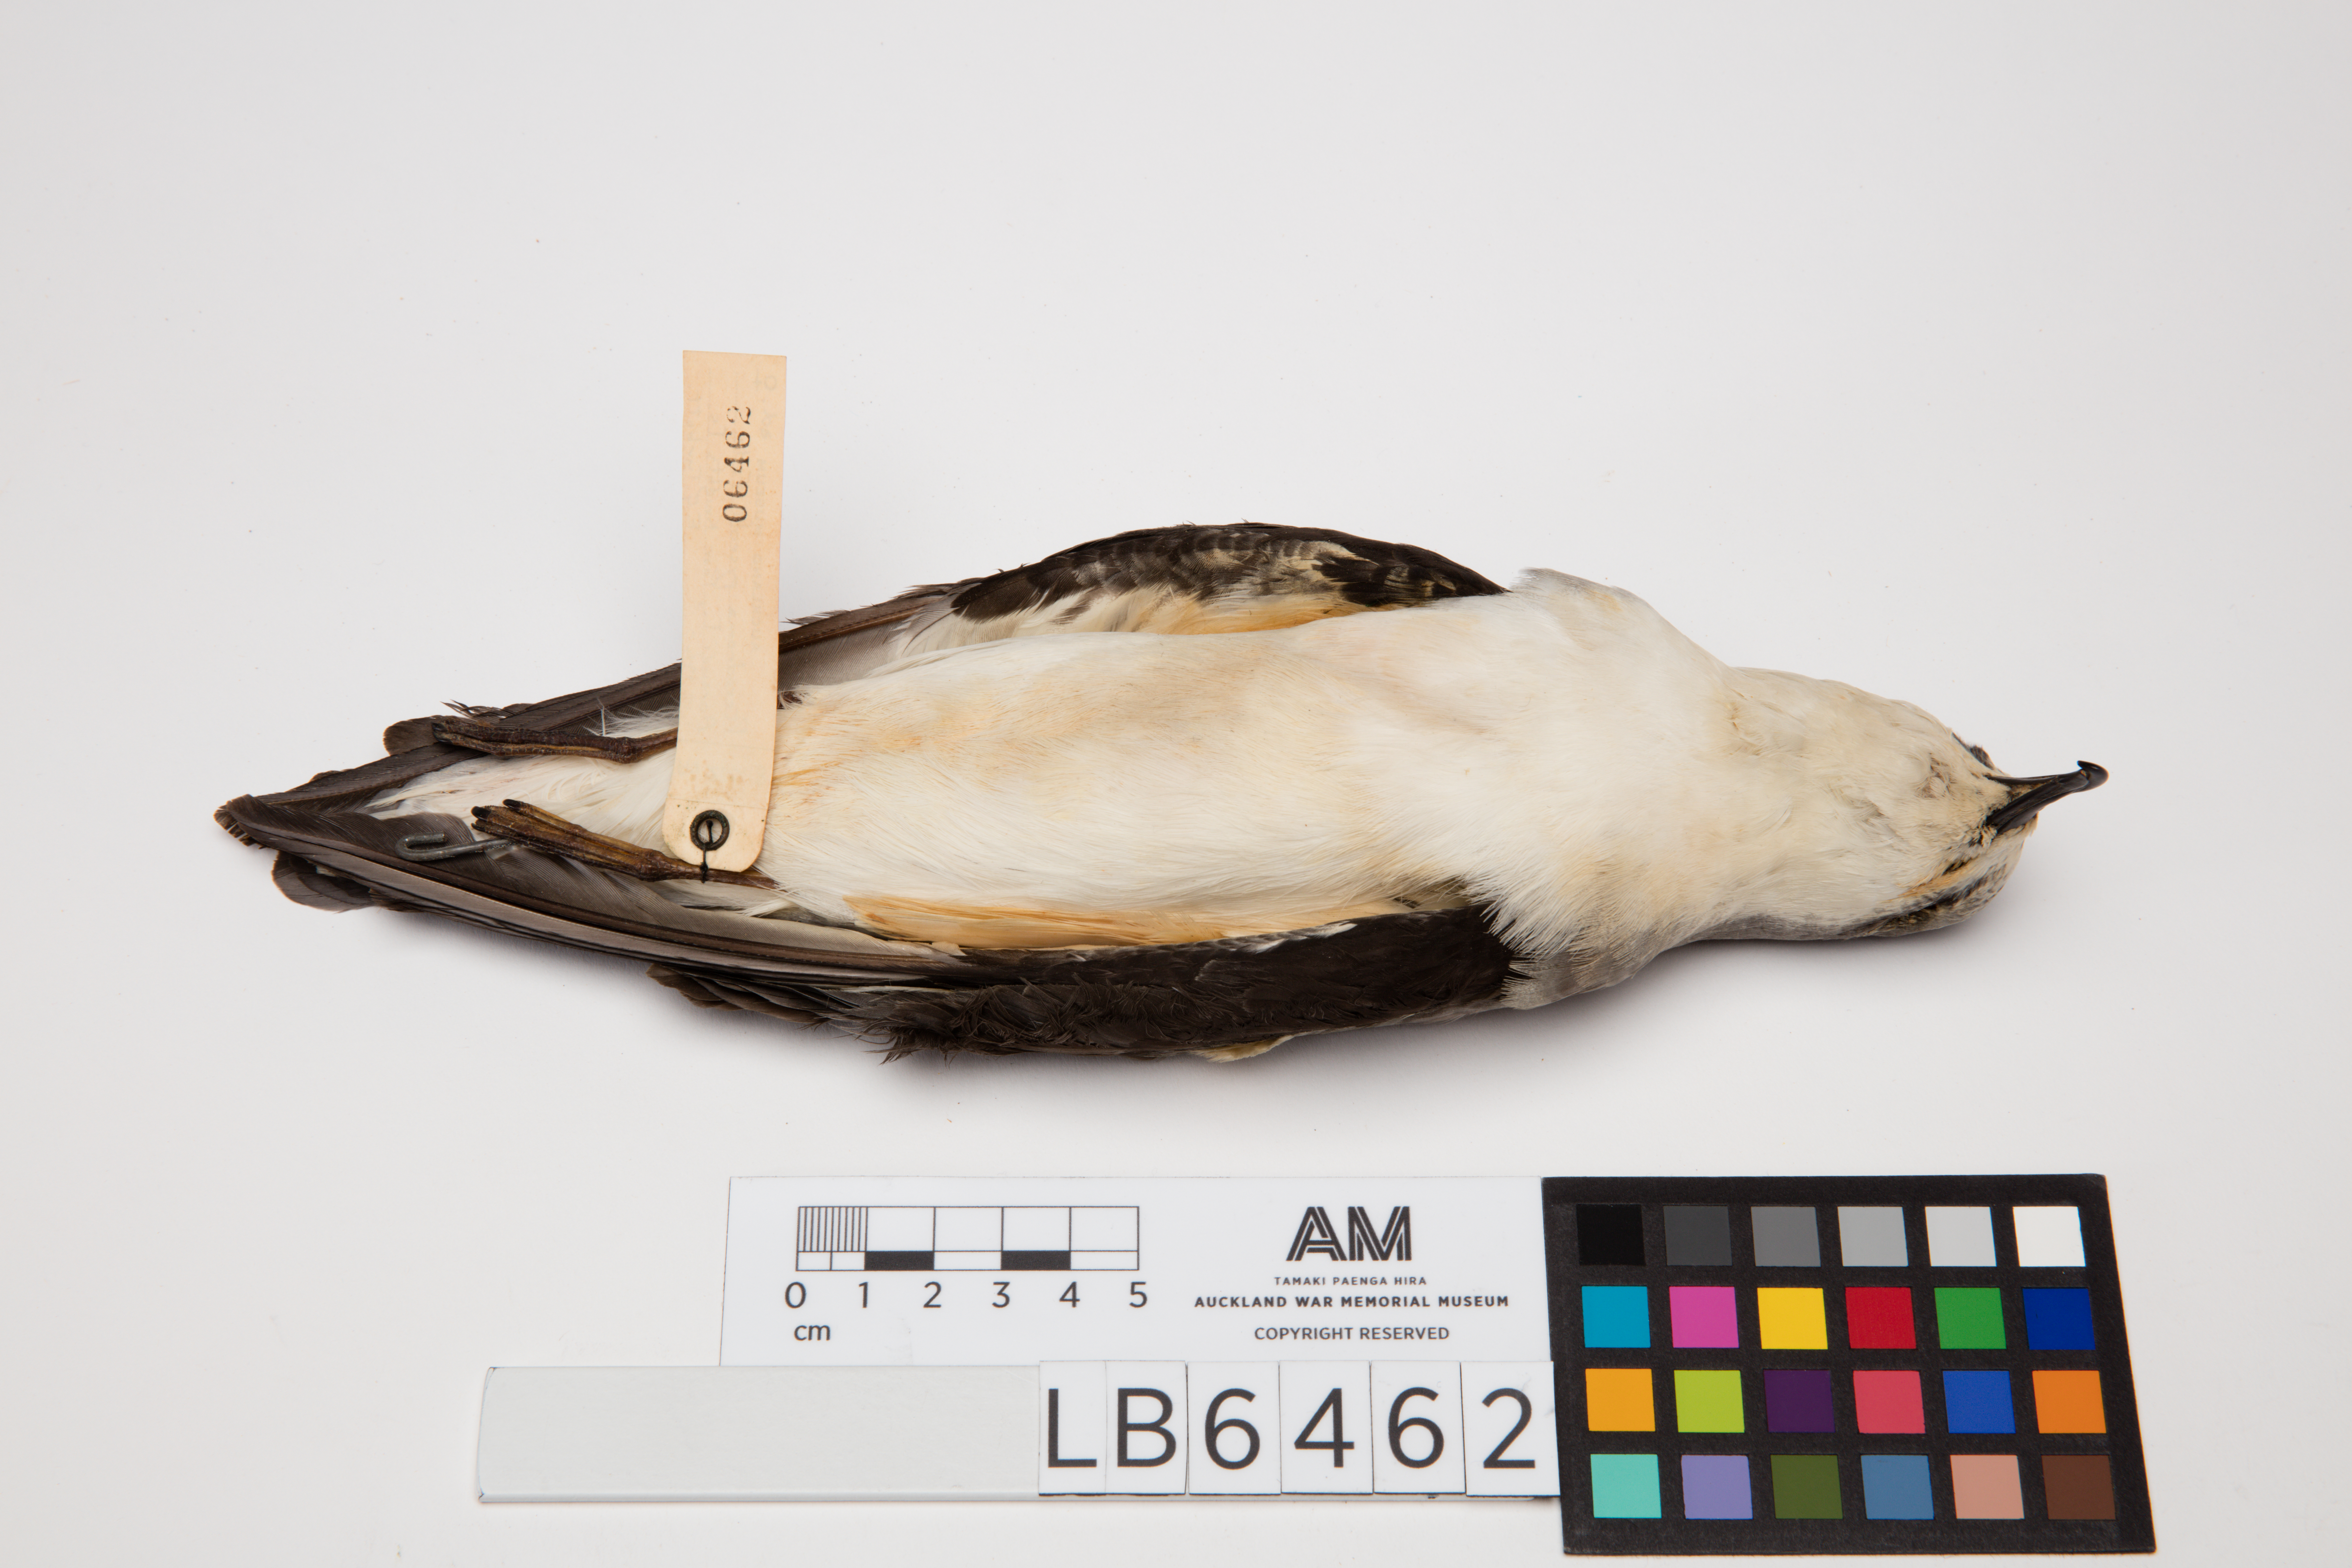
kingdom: Animalia
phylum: Chordata
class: Aves
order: Procellariiformes
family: Procellariidae
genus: Pterodroma
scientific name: Pterodroma pycrofti
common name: Pycroft's petrel
